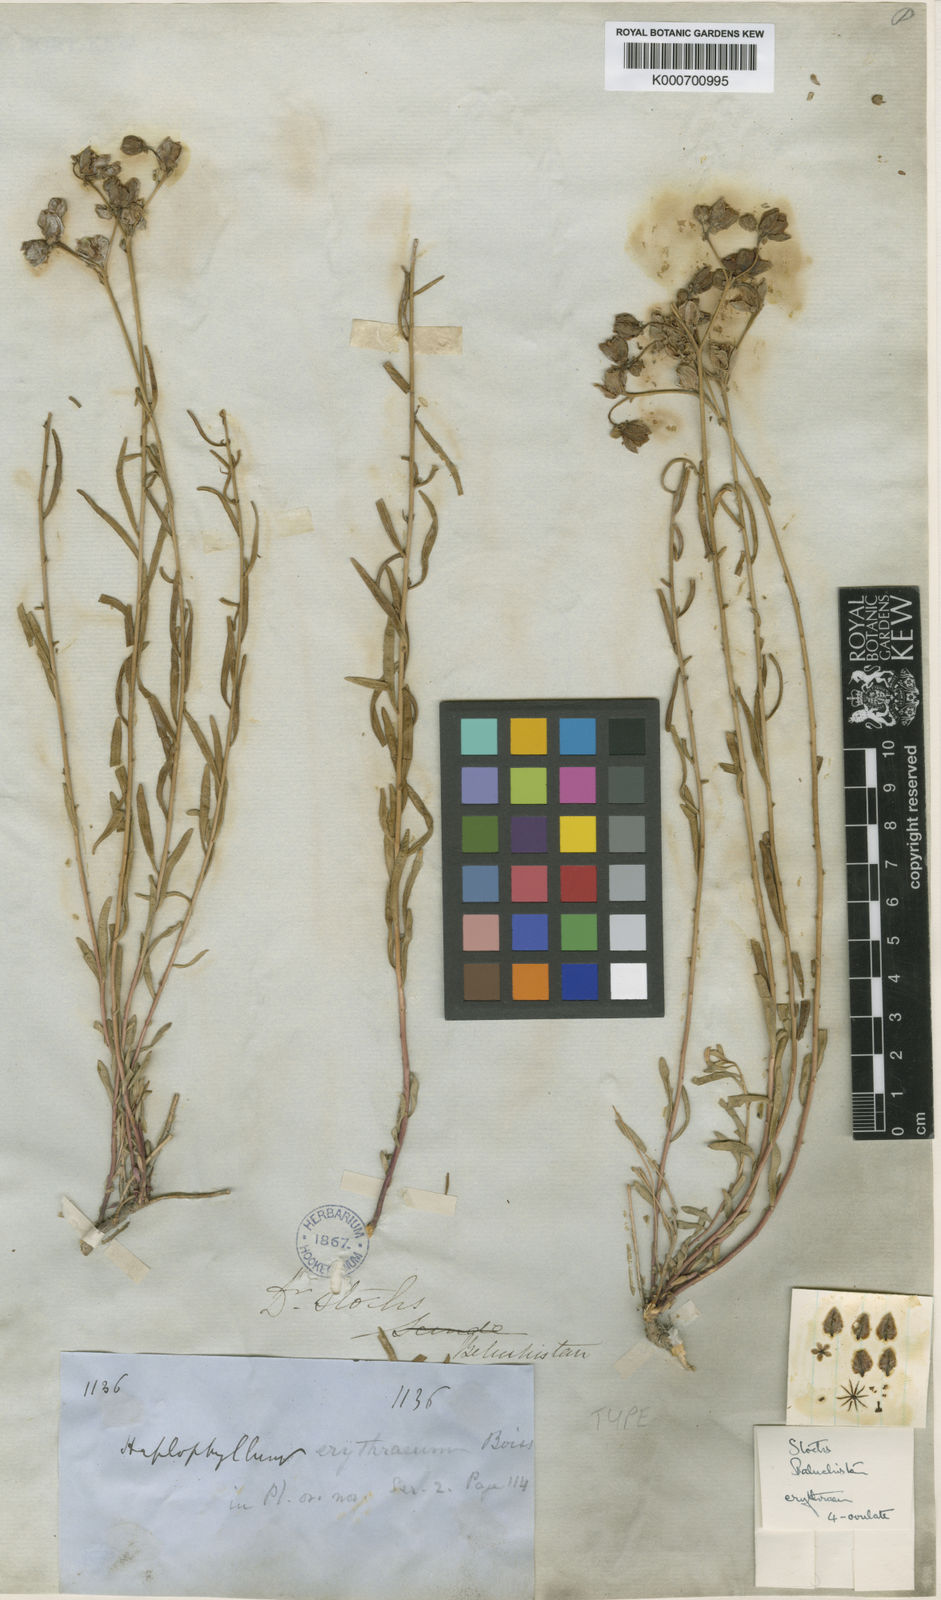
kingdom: Plantae
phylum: Tracheophyta
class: Magnoliopsida
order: Sapindales
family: Rutaceae
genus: Haplophyllum
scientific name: Haplophyllum erythraeum
